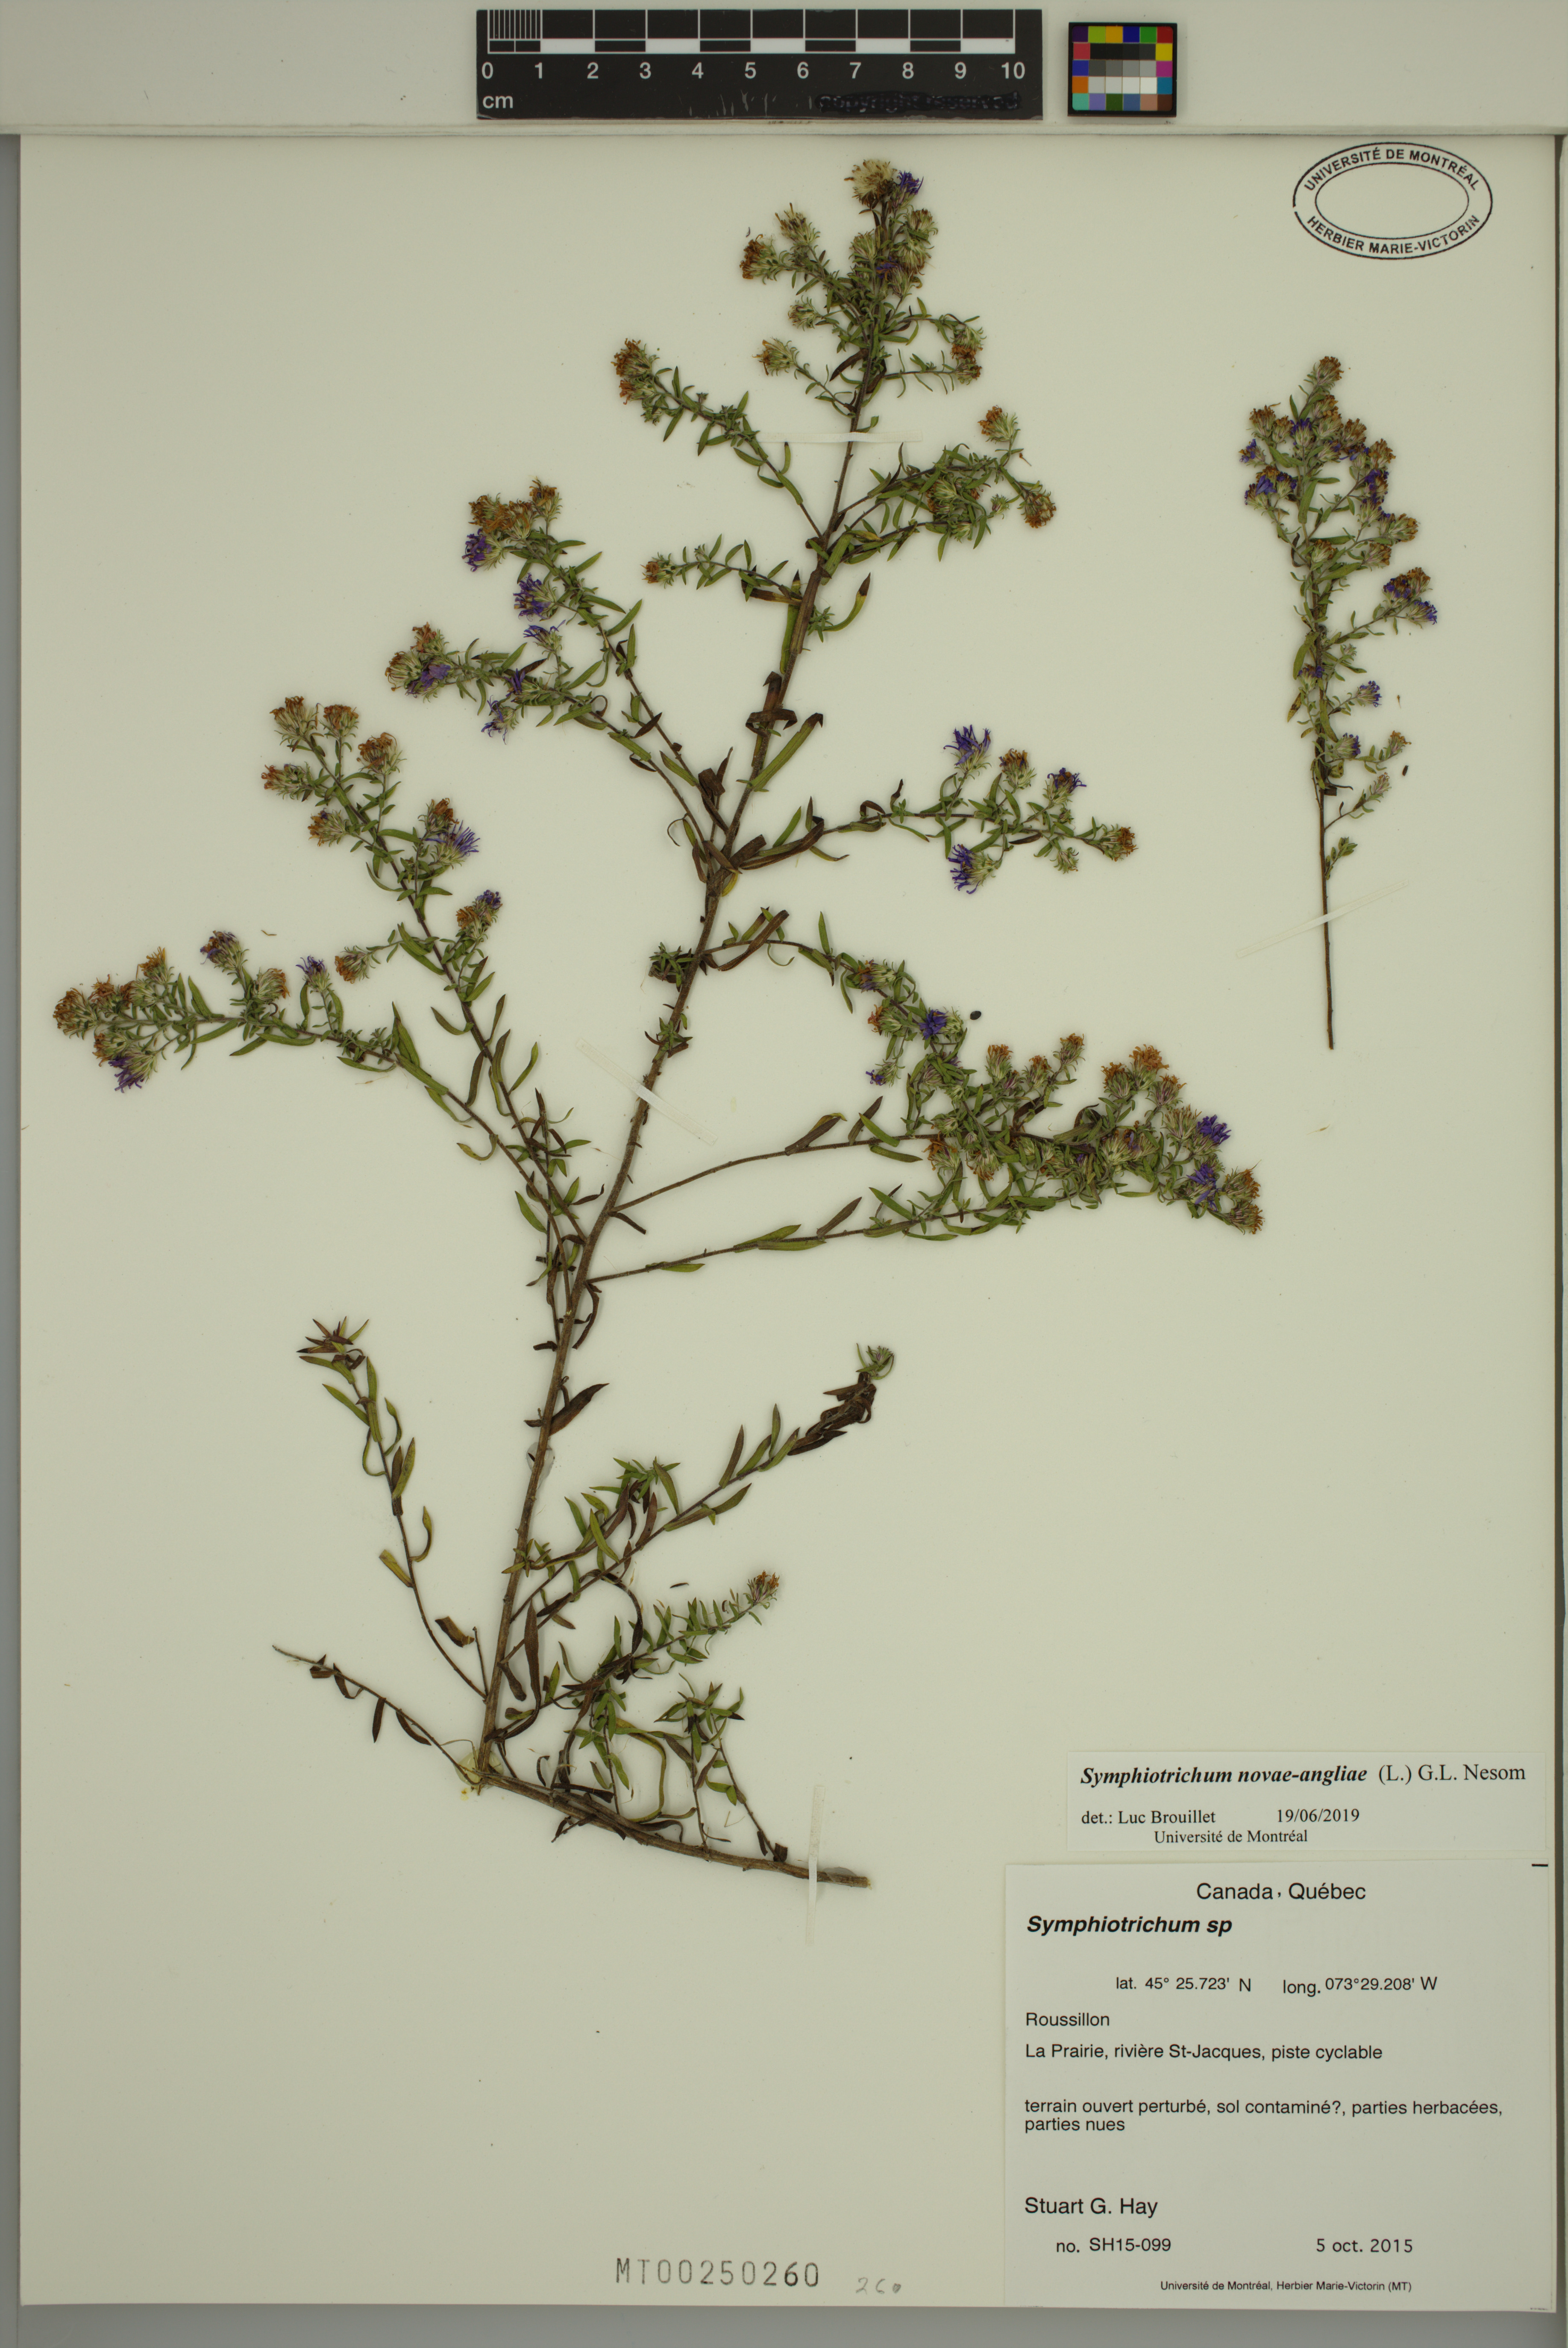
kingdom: Plantae
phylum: Tracheophyta
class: Magnoliopsida
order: Asterales
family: Asteraceae
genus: Symphyotrichum
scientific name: Symphyotrichum amethystinum
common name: Amethyst aster
